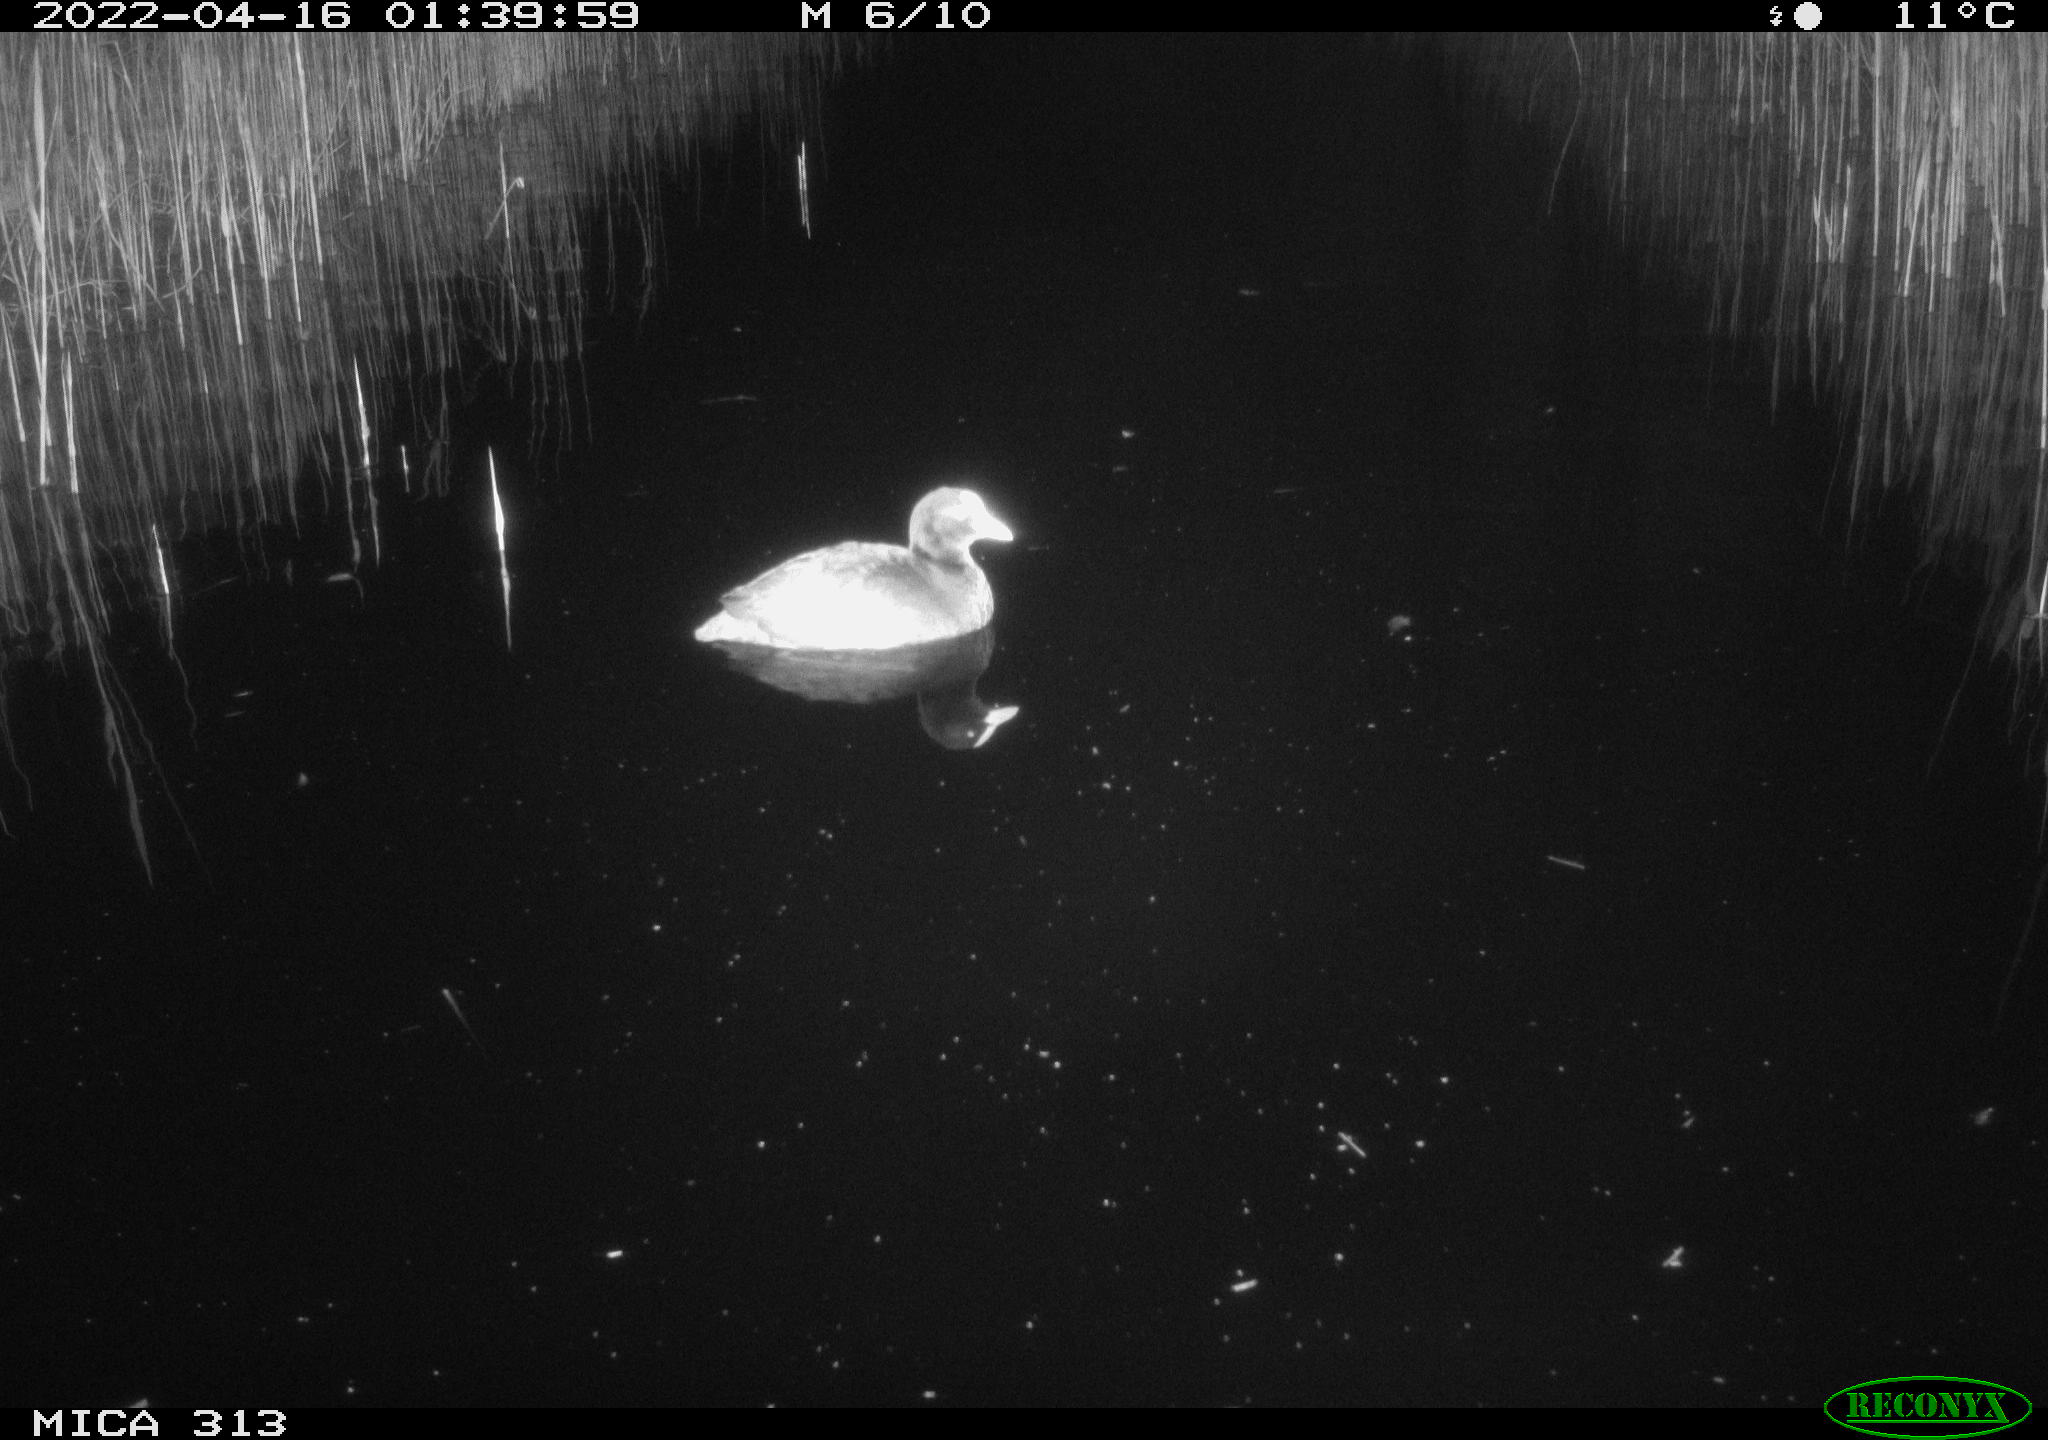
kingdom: Animalia
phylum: Chordata
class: Aves
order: Gruiformes
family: Rallidae
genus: Fulica
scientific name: Fulica atra
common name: Eurasian coot
